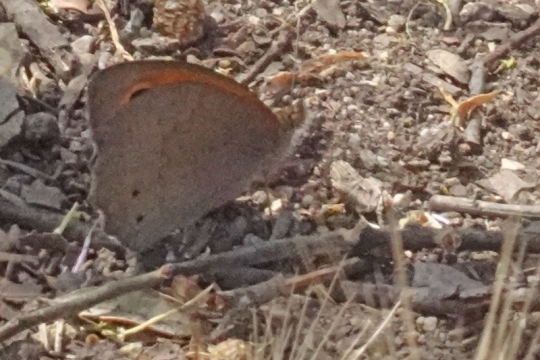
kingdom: Animalia
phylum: Arthropoda
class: Insecta
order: Lepidoptera
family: Nymphalidae
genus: Maniola
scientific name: Maniola jurtina
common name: Meadow Brown
